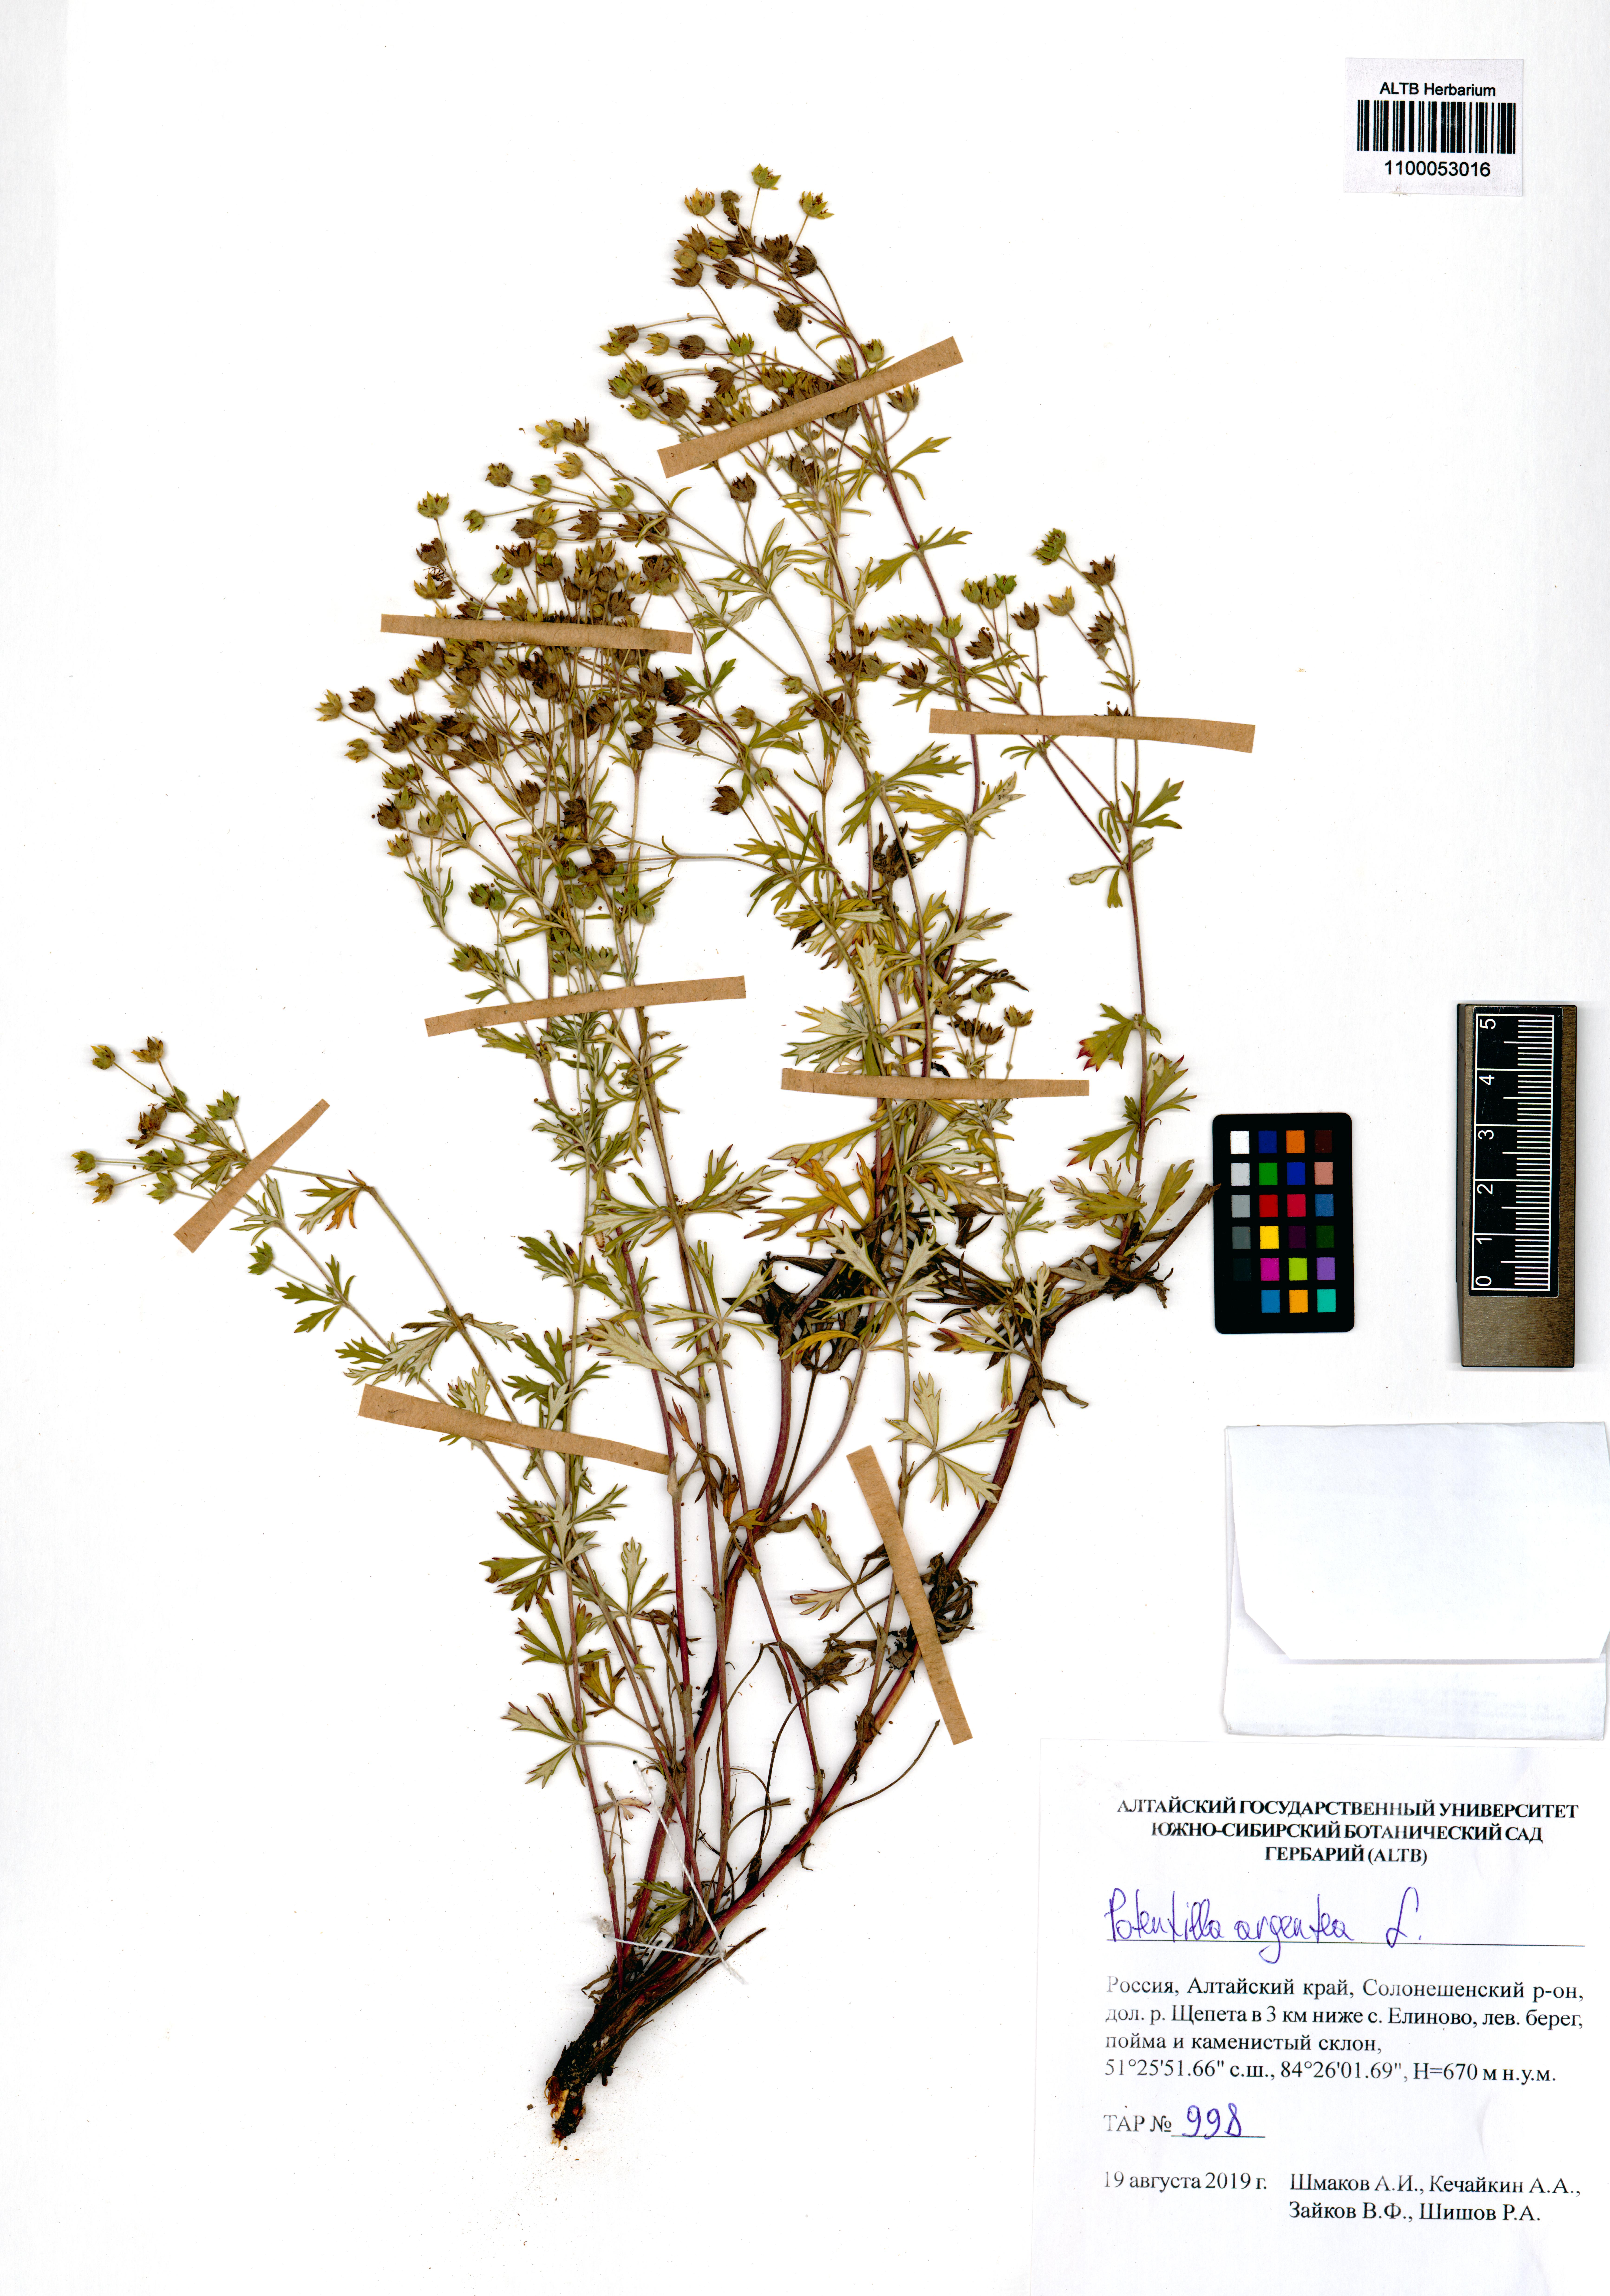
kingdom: Plantae
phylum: Tracheophyta
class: Magnoliopsida
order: Rosales
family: Rosaceae
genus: Potentilla
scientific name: Potentilla argentea
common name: Hoary cinquefoil
